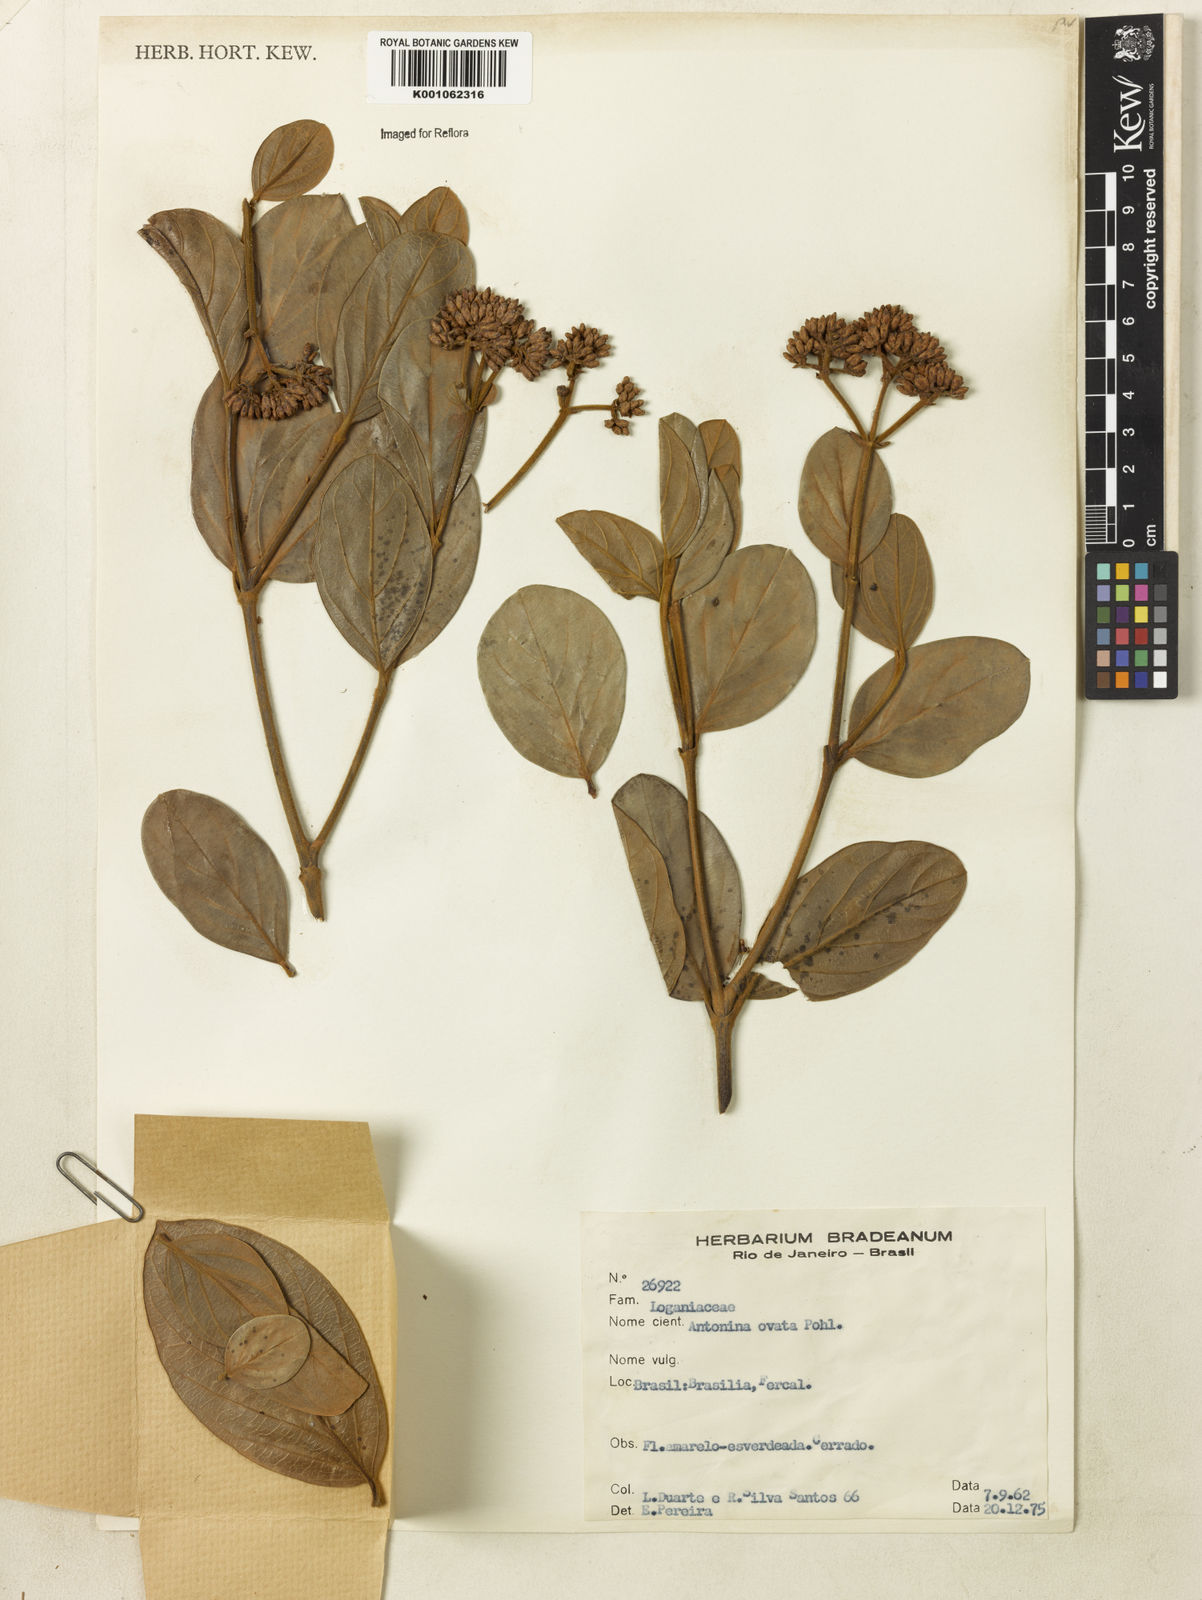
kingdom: Plantae
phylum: Tracheophyta
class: Magnoliopsida
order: Gentianales
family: Loganiaceae
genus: Antonia
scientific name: Antonia ovata
